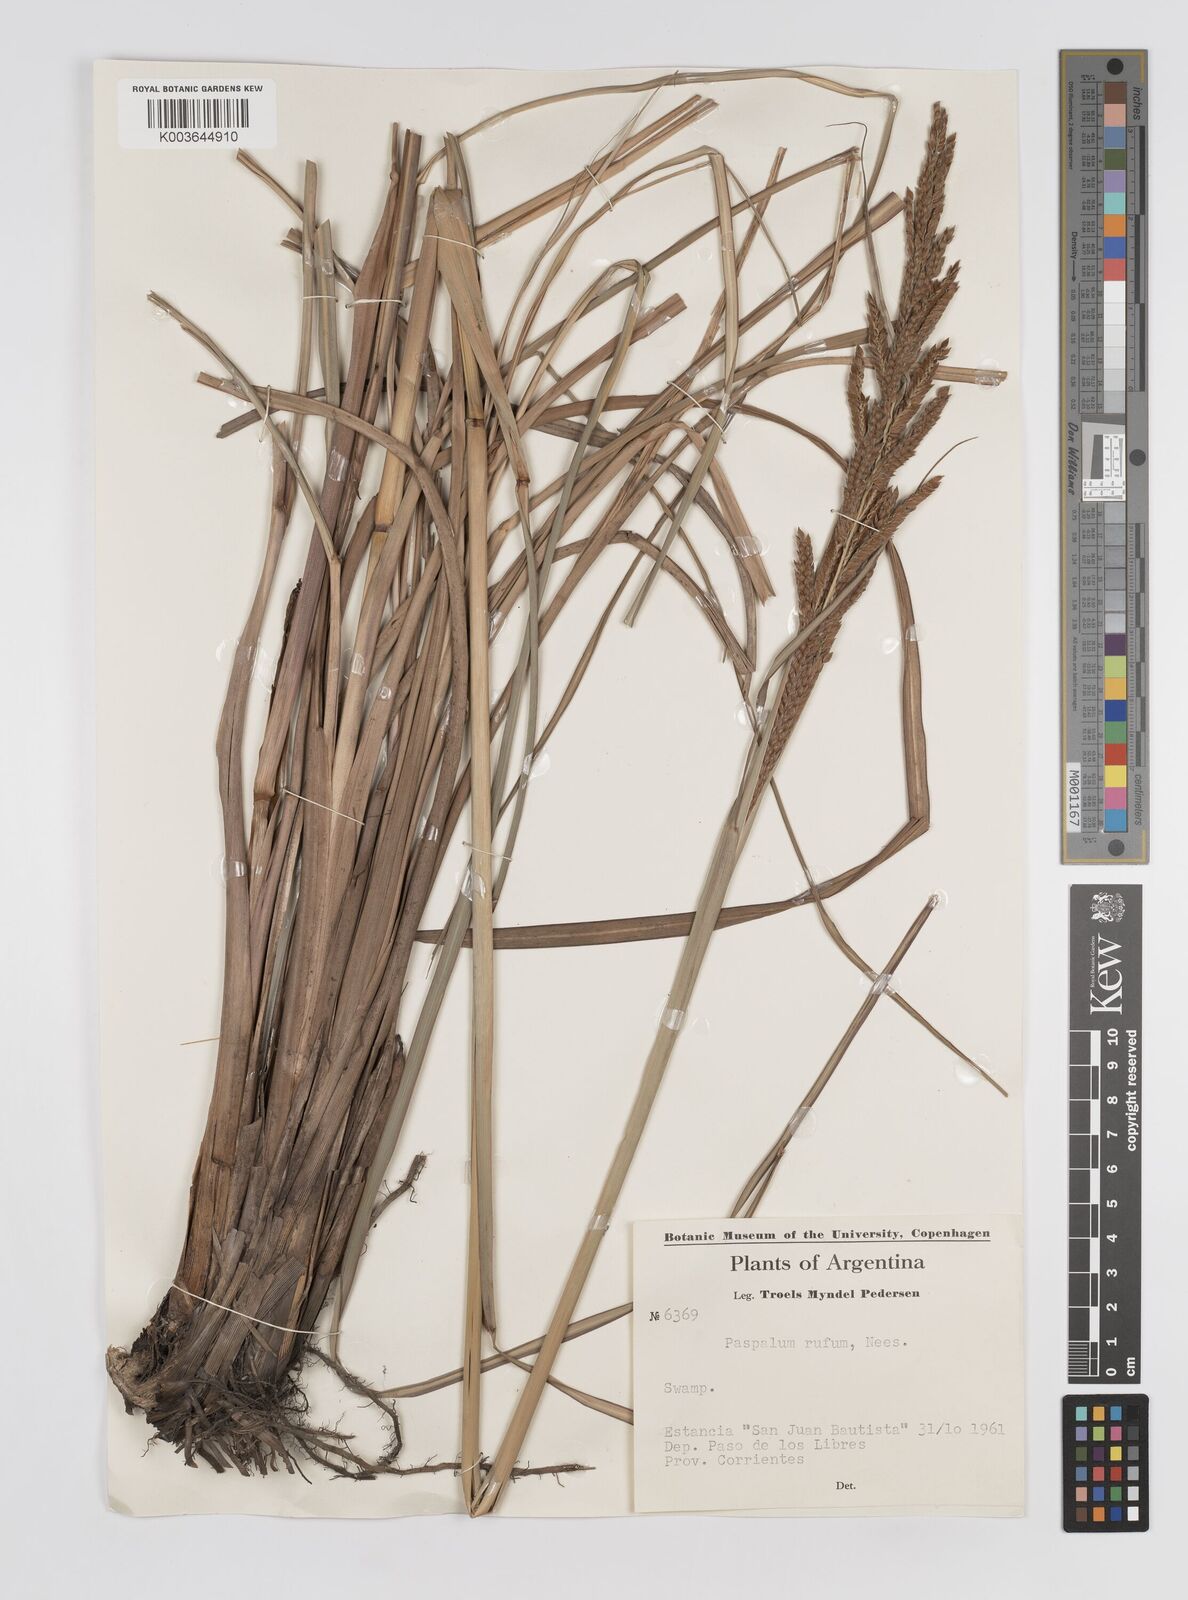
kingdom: Plantae
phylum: Tracheophyta
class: Liliopsida
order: Poales
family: Poaceae
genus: Paspalum
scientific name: Paspalum rufum
